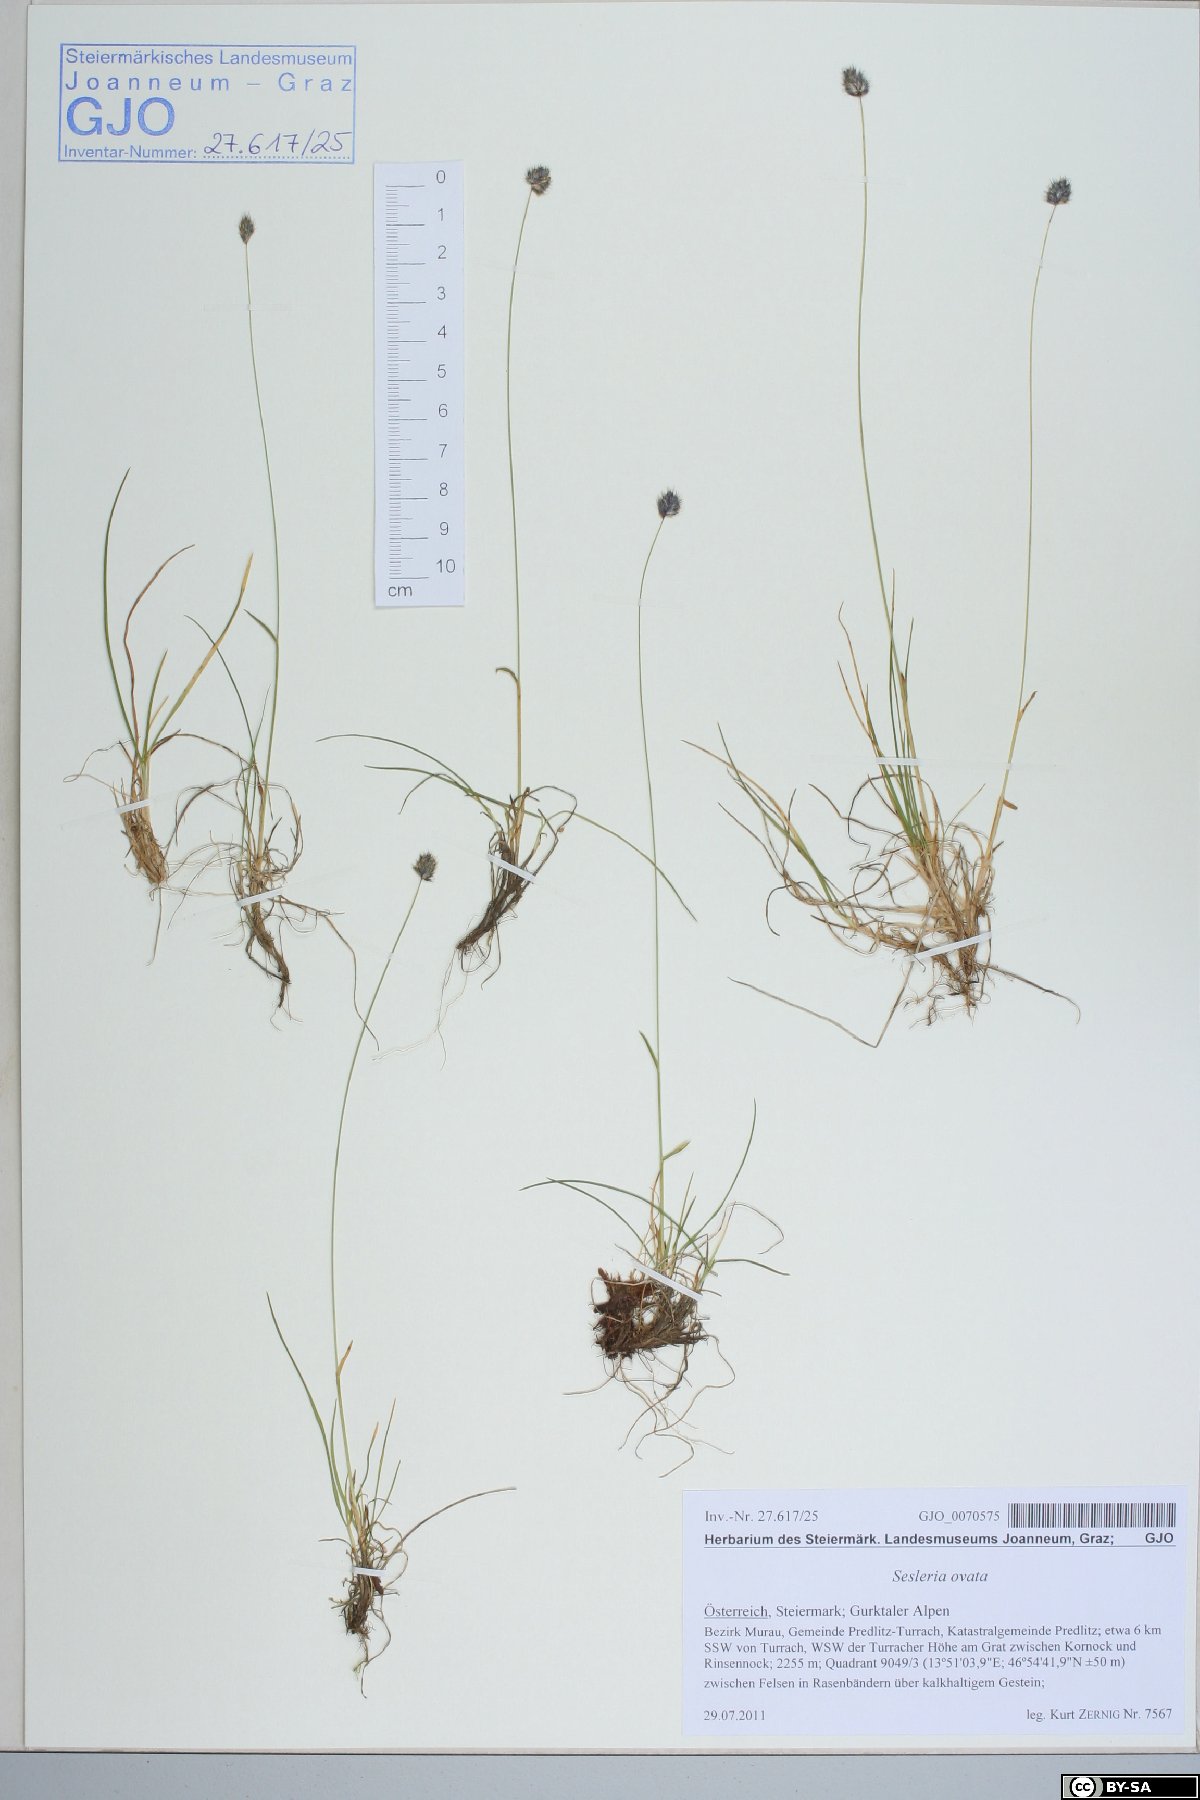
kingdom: Plantae
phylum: Tracheophyta
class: Liliopsida
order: Poales
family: Poaceae
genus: Psilathera
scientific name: Psilathera ovata
